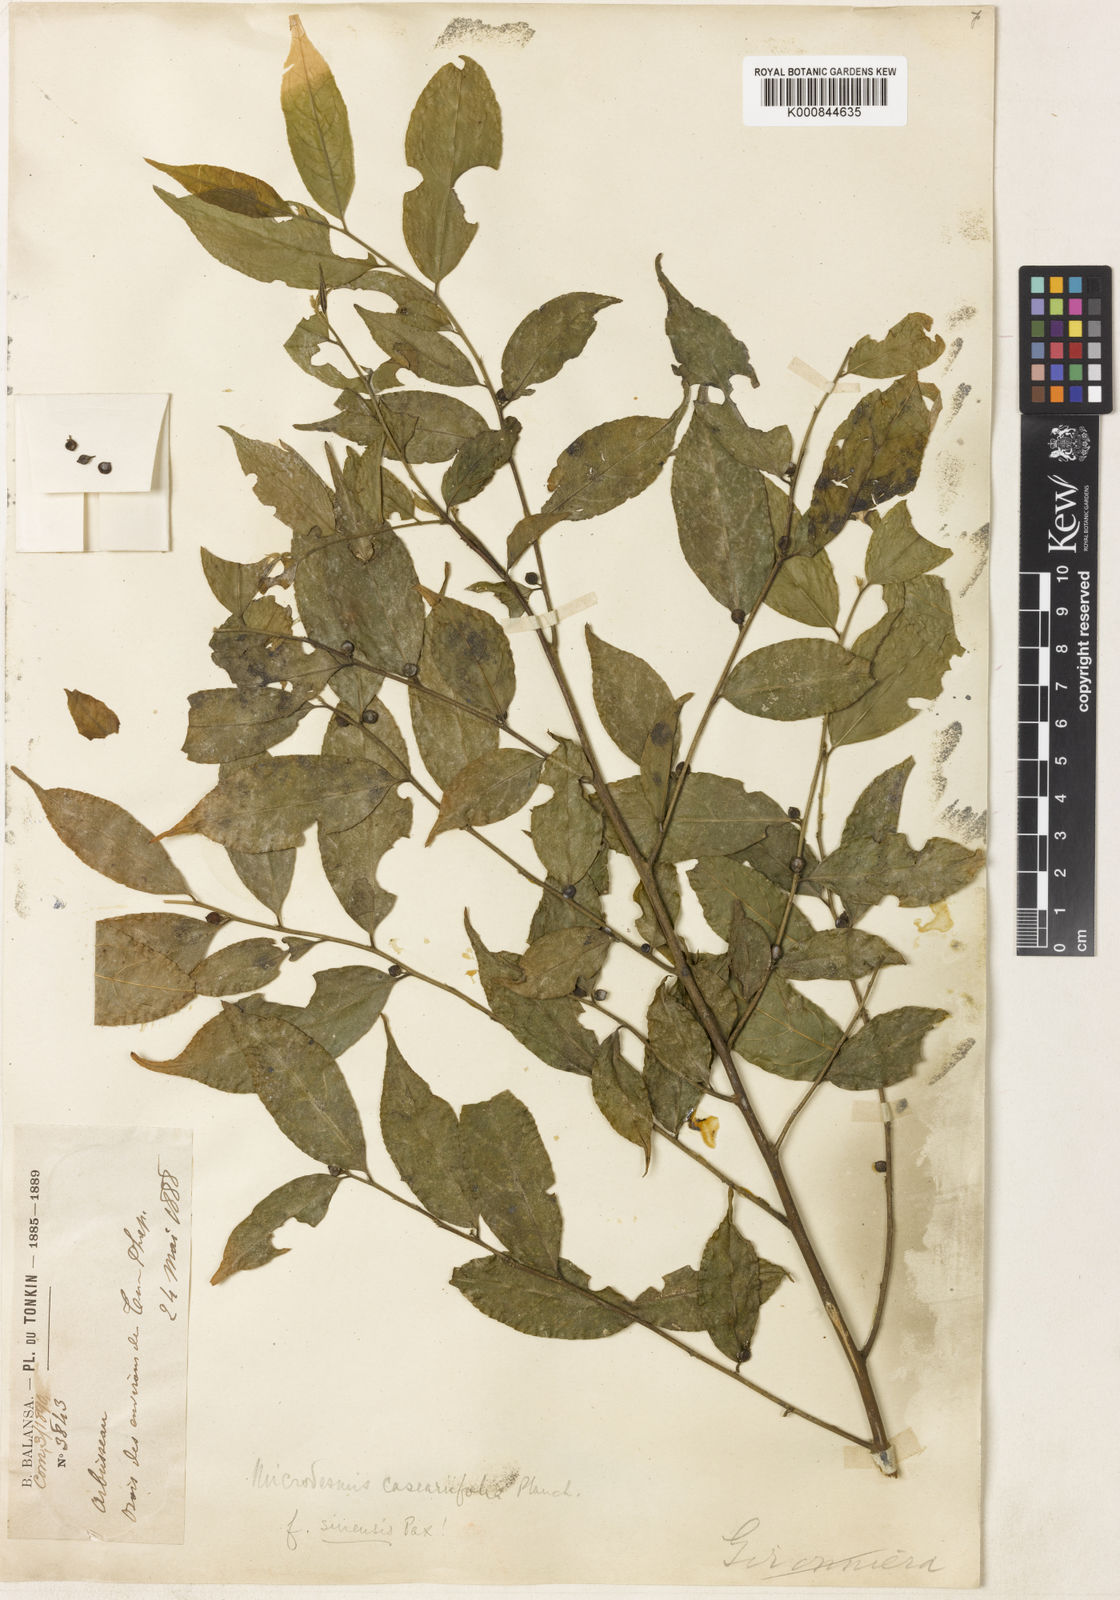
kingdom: Plantae
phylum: Tracheophyta
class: Magnoliopsida
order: Malpighiales
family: Pandaceae
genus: Microdesmis
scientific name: Microdesmis caseariifolia
